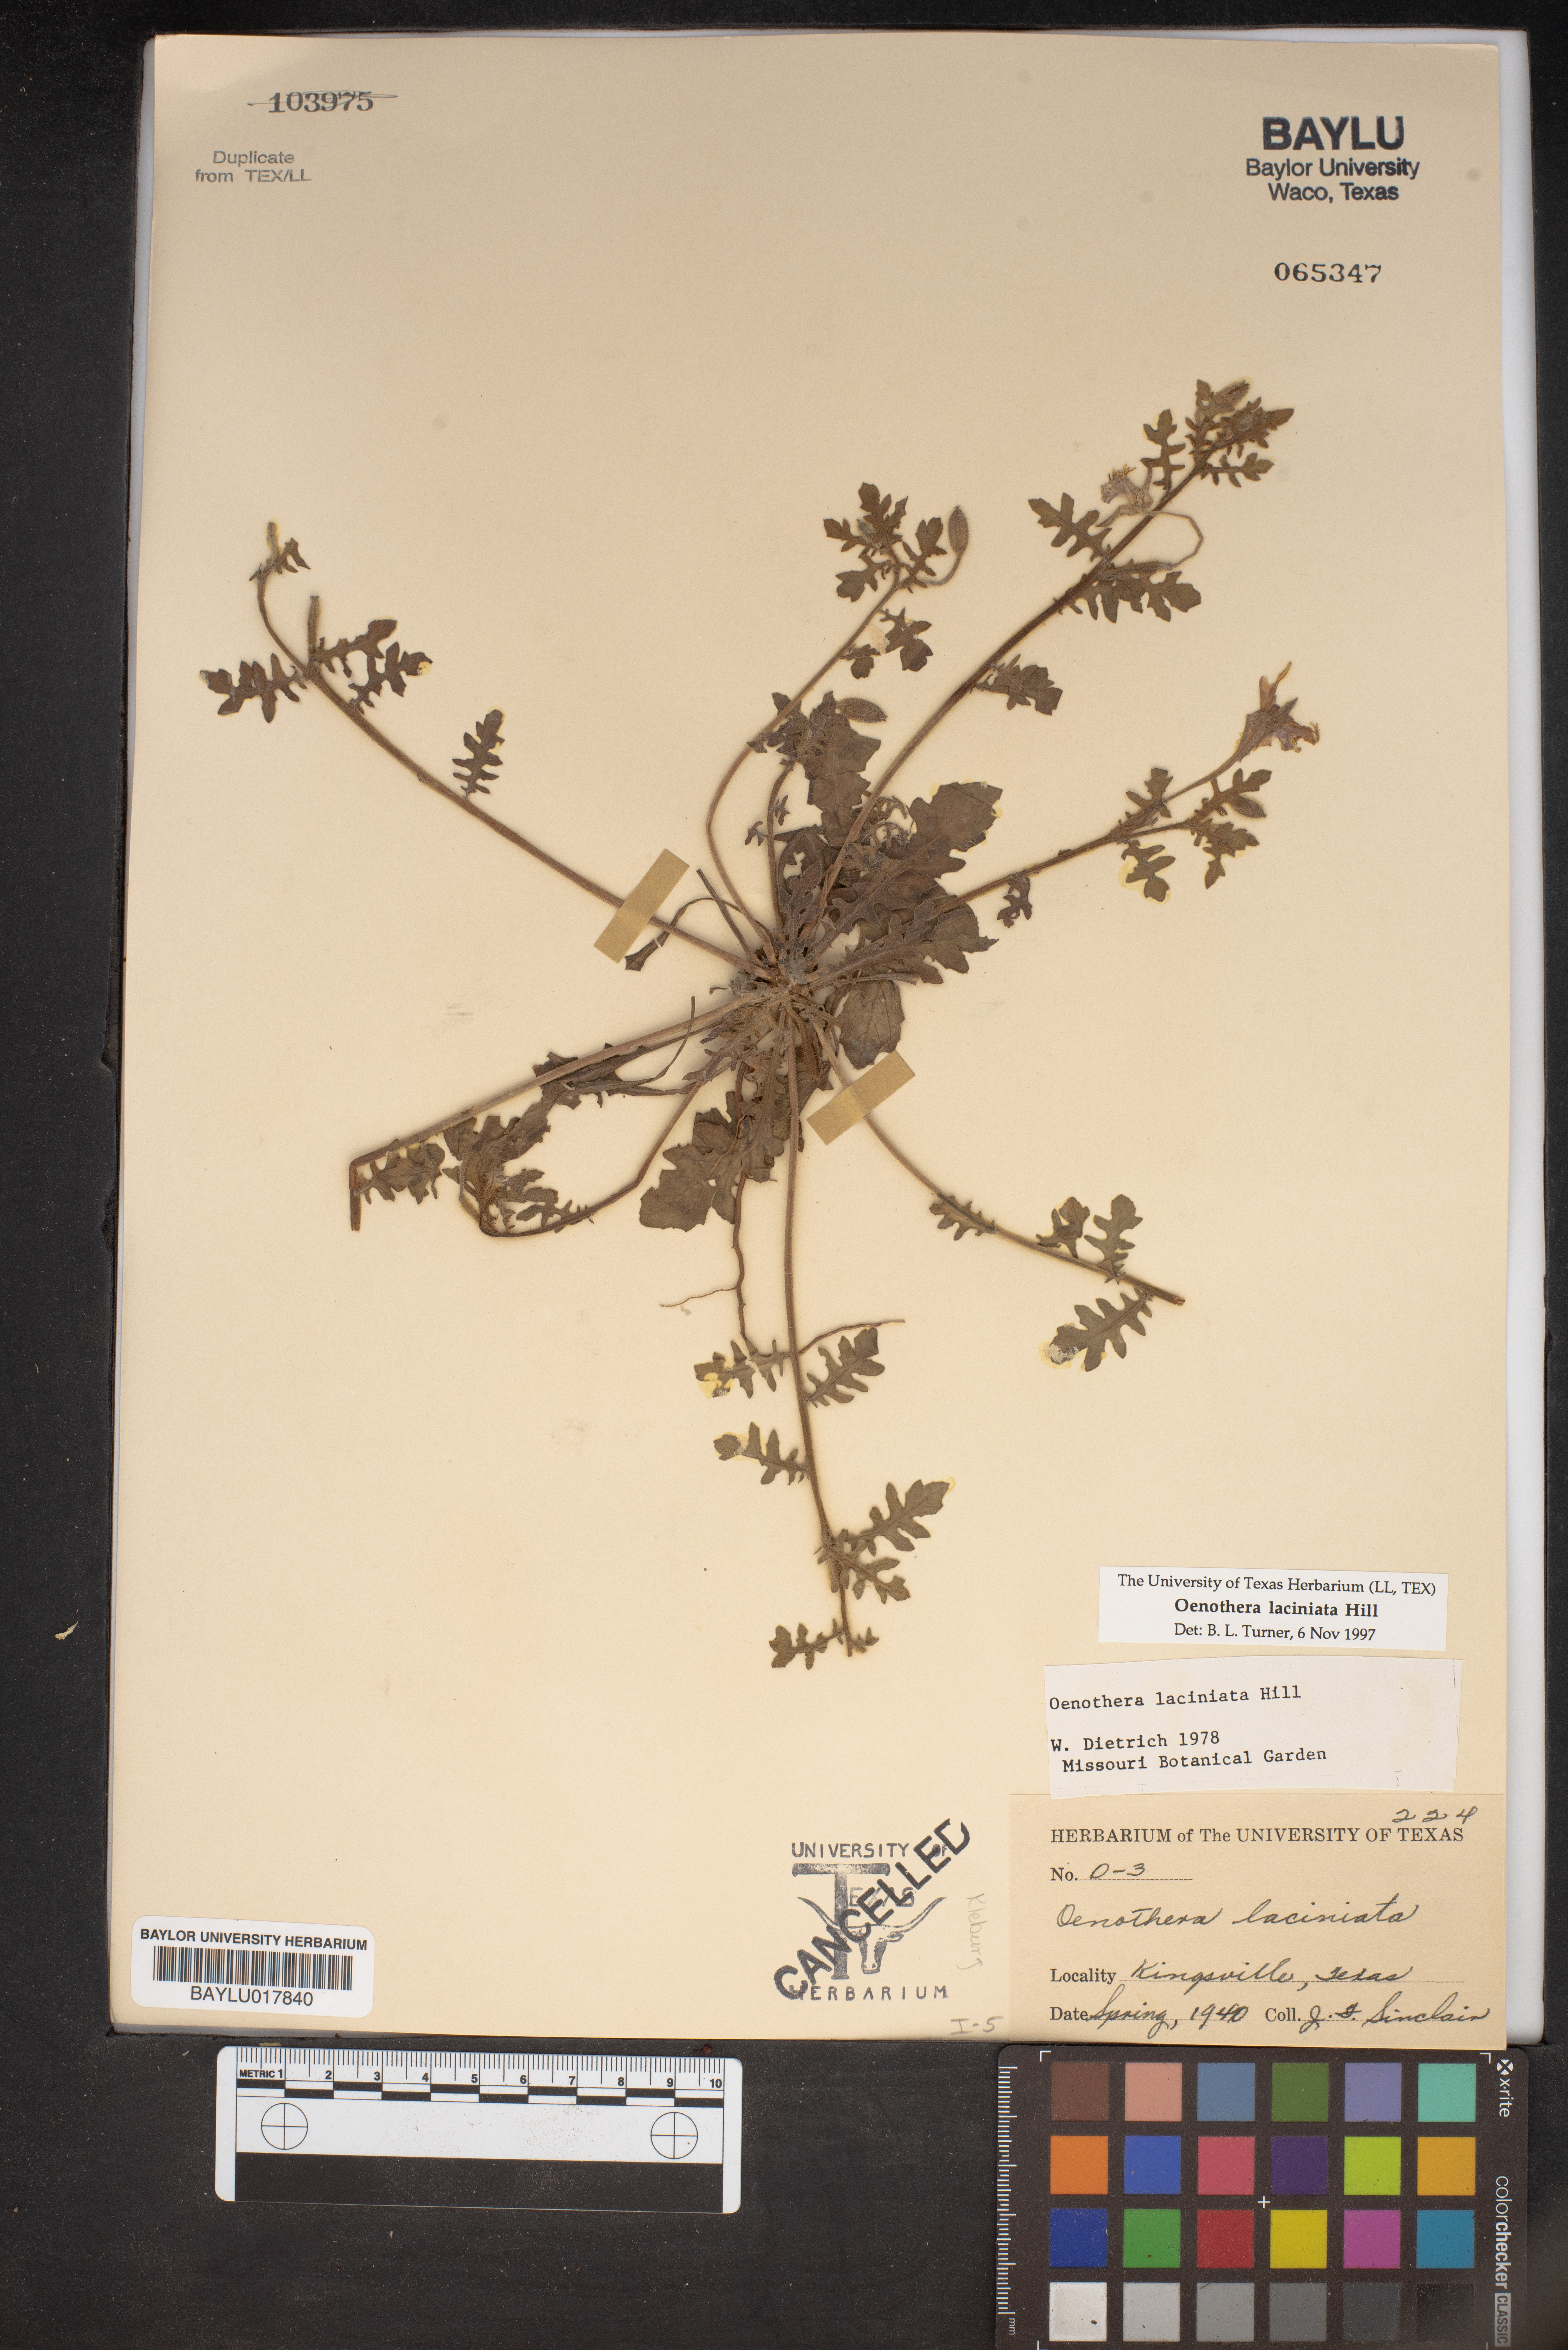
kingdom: Plantae
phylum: Tracheophyta
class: Magnoliopsida
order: Myrtales
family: Onagraceae
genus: Oenothera
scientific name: Oenothera laciniata
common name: Cut-leaved evening-primrose
